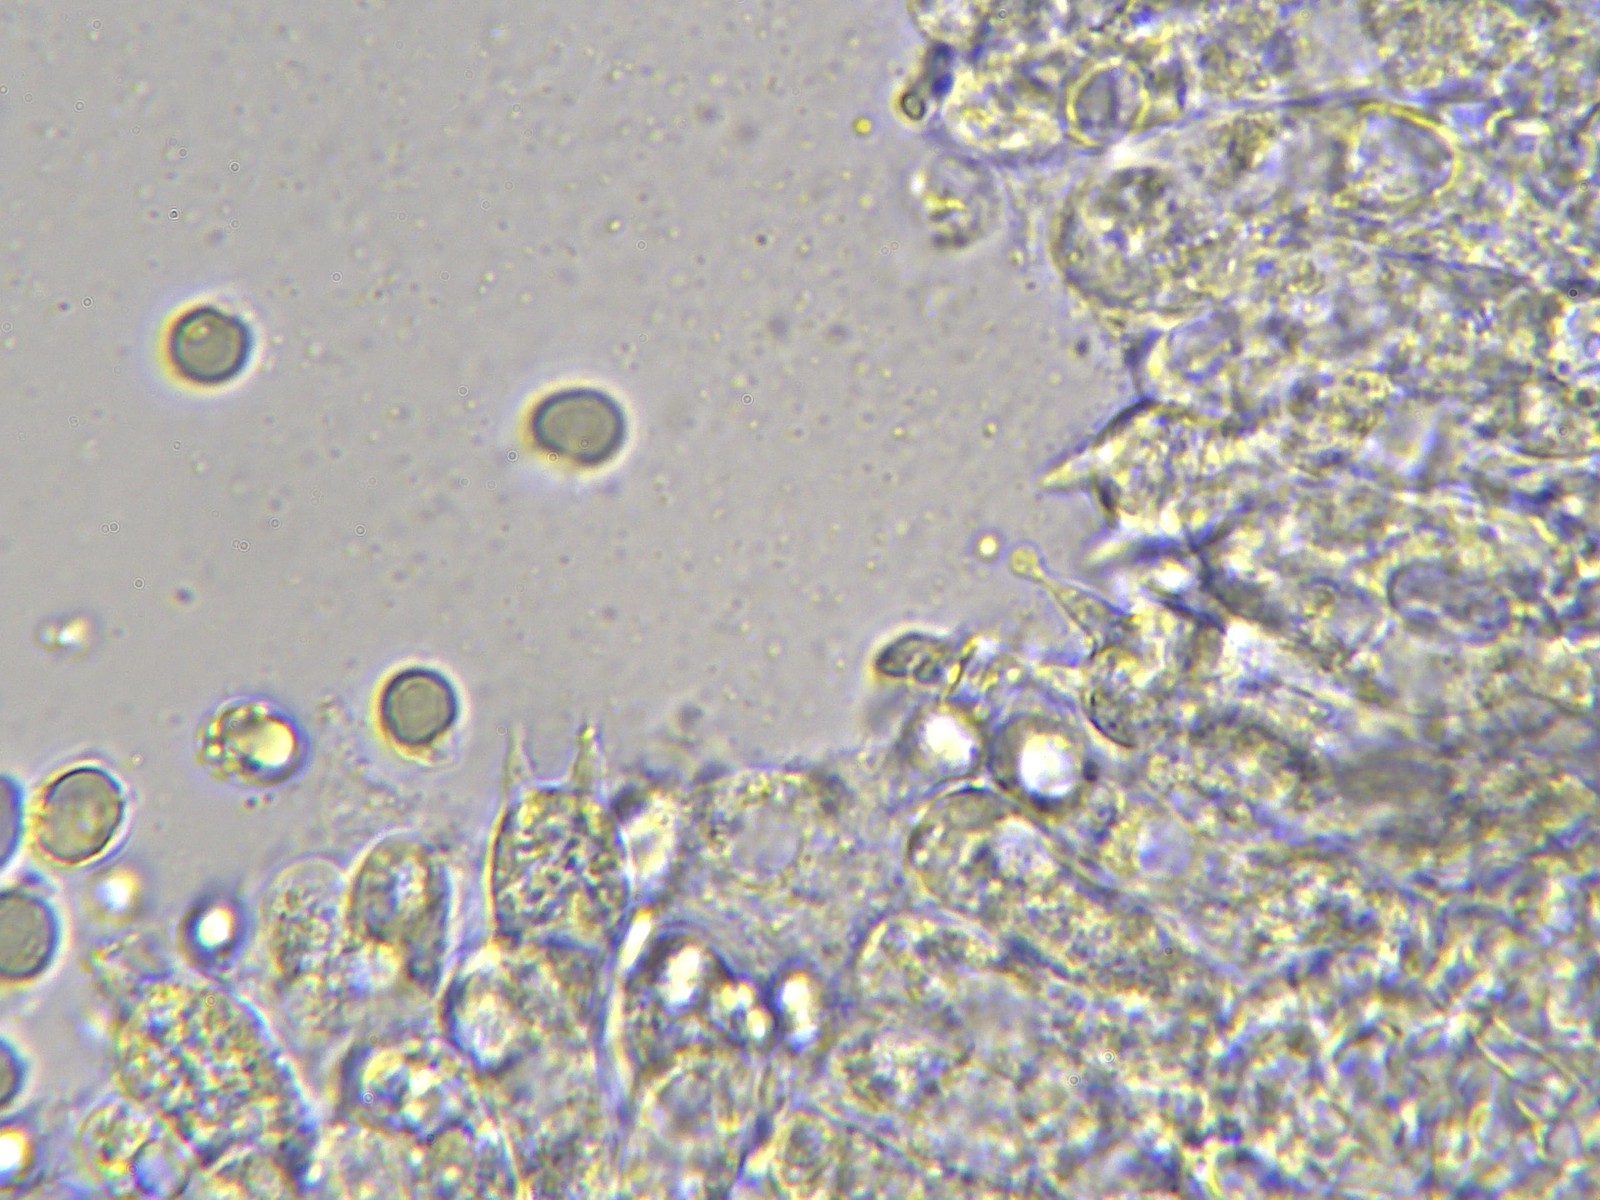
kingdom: Fungi
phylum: Basidiomycota
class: Agaricomycetes
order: Agaricales
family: Mycenaceae
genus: Mycena
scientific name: Mycena filopes
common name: jod-huesvamp
